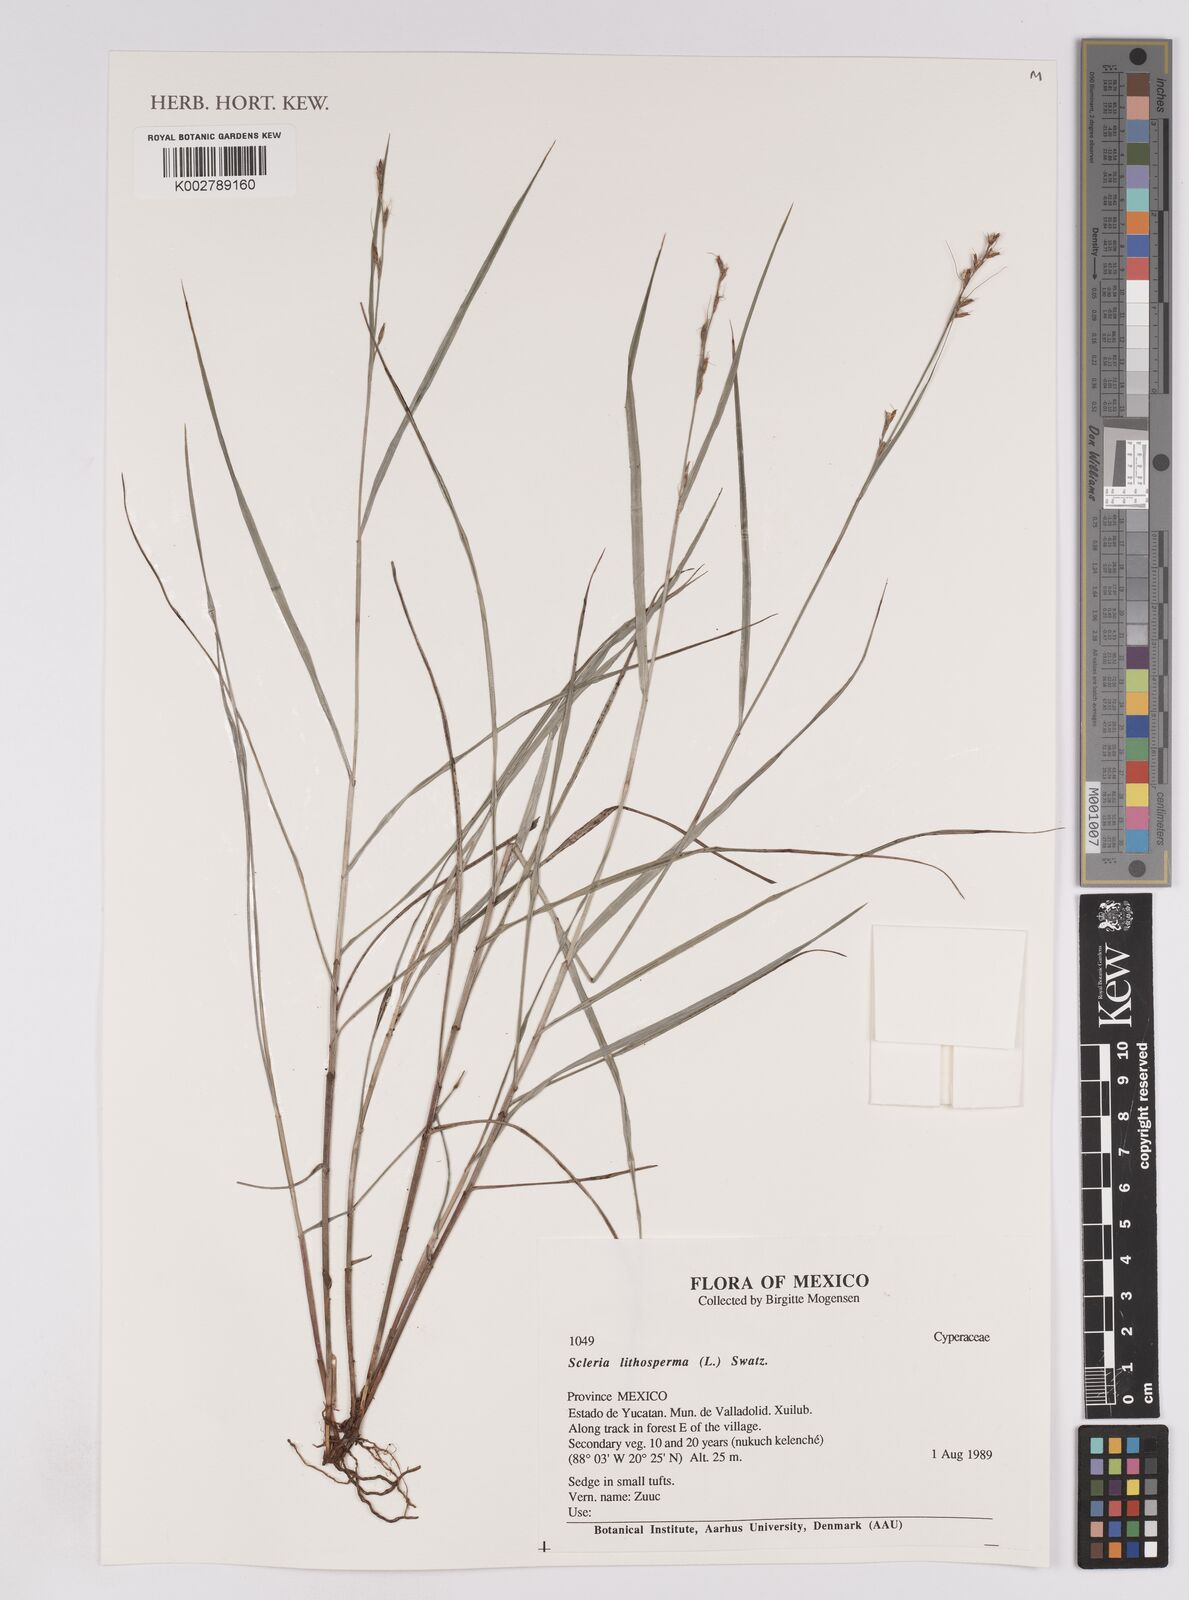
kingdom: Plantae
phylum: Tracheophyta
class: Liliopsida
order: Poales
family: Cyperaceae
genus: Scleria
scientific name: Scleria lithosperma
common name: Florida keys nut-rush
